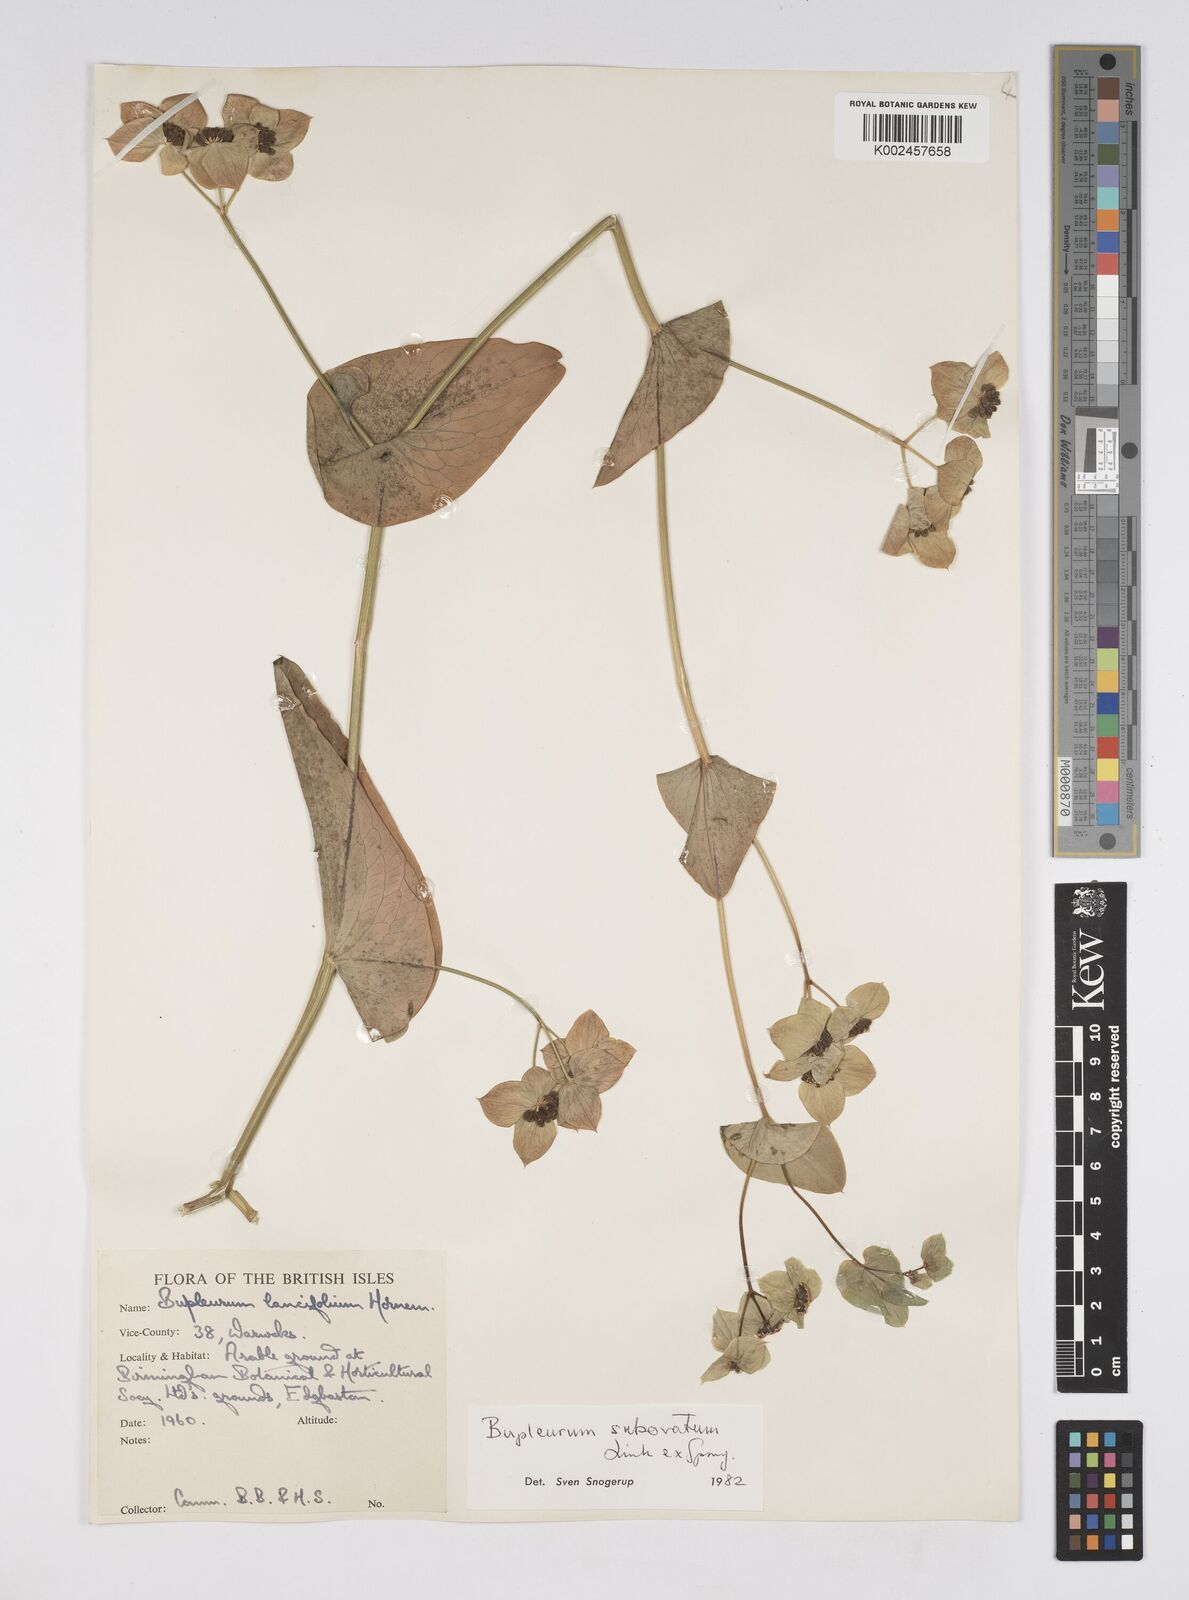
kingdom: Plantae
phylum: Tracheophyta
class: Magnoliopsida
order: Apiales
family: Apiaceae
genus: Bupleurum
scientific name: Bupleurum subovatum
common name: False thorow-wax
